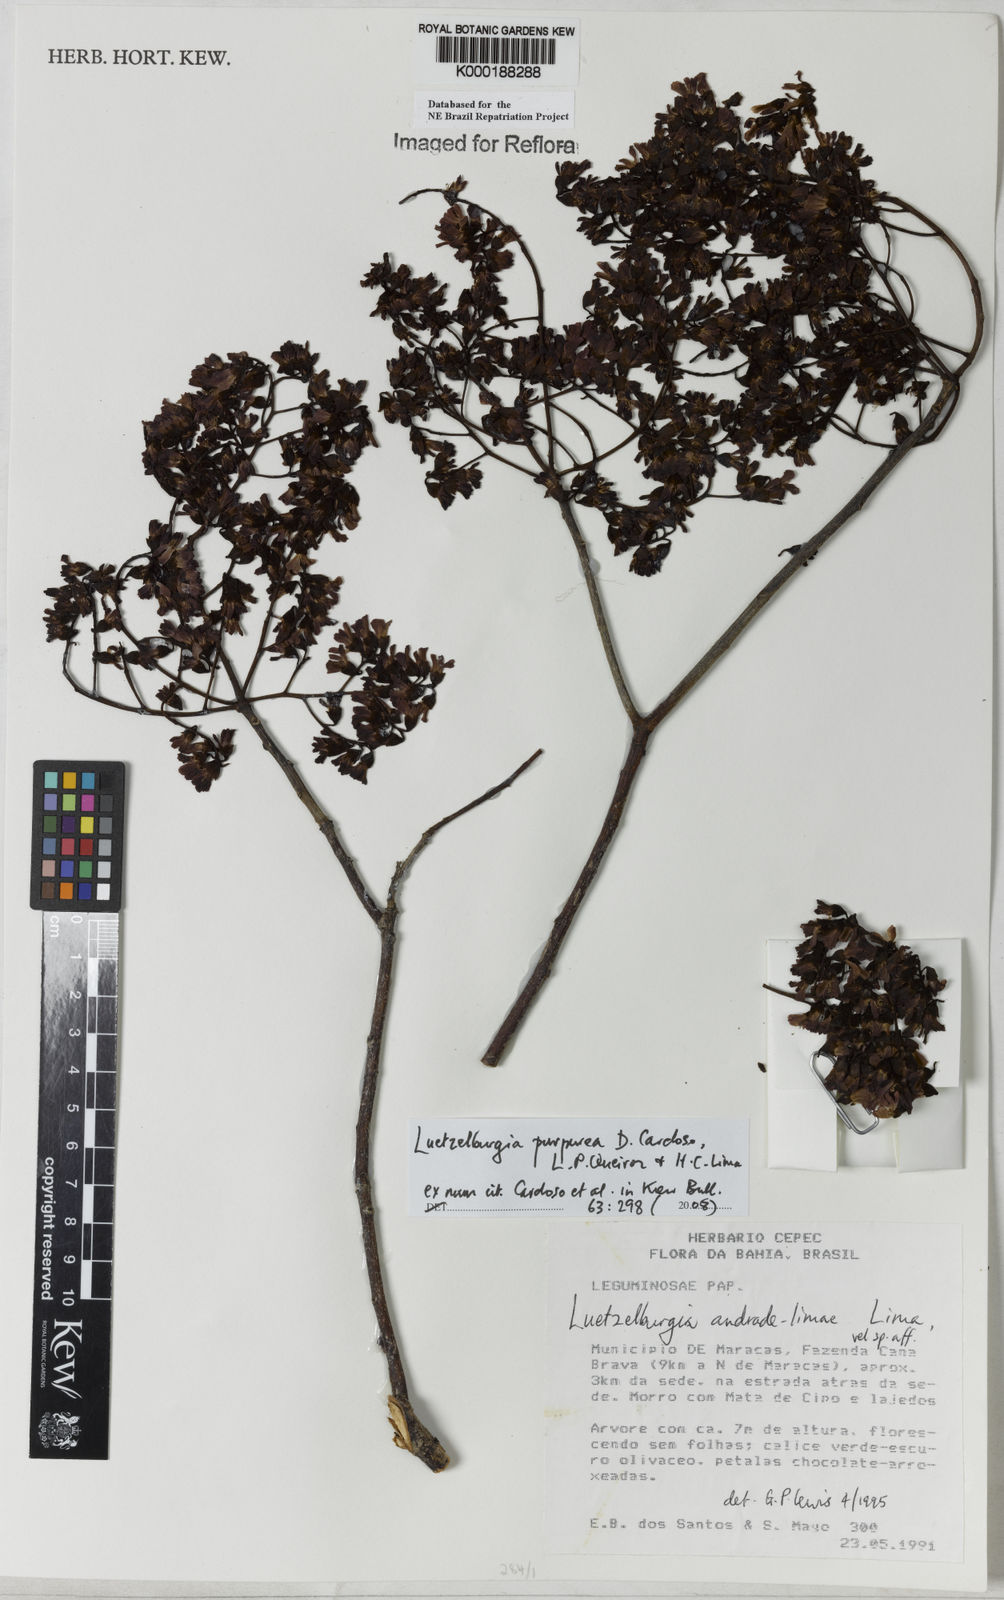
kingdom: Plantae
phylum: Tracheophyta
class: Magnoliopsida
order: Fabales
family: Fabaceae
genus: Luetzelburgia
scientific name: Luetzelburgia andrade-limae
